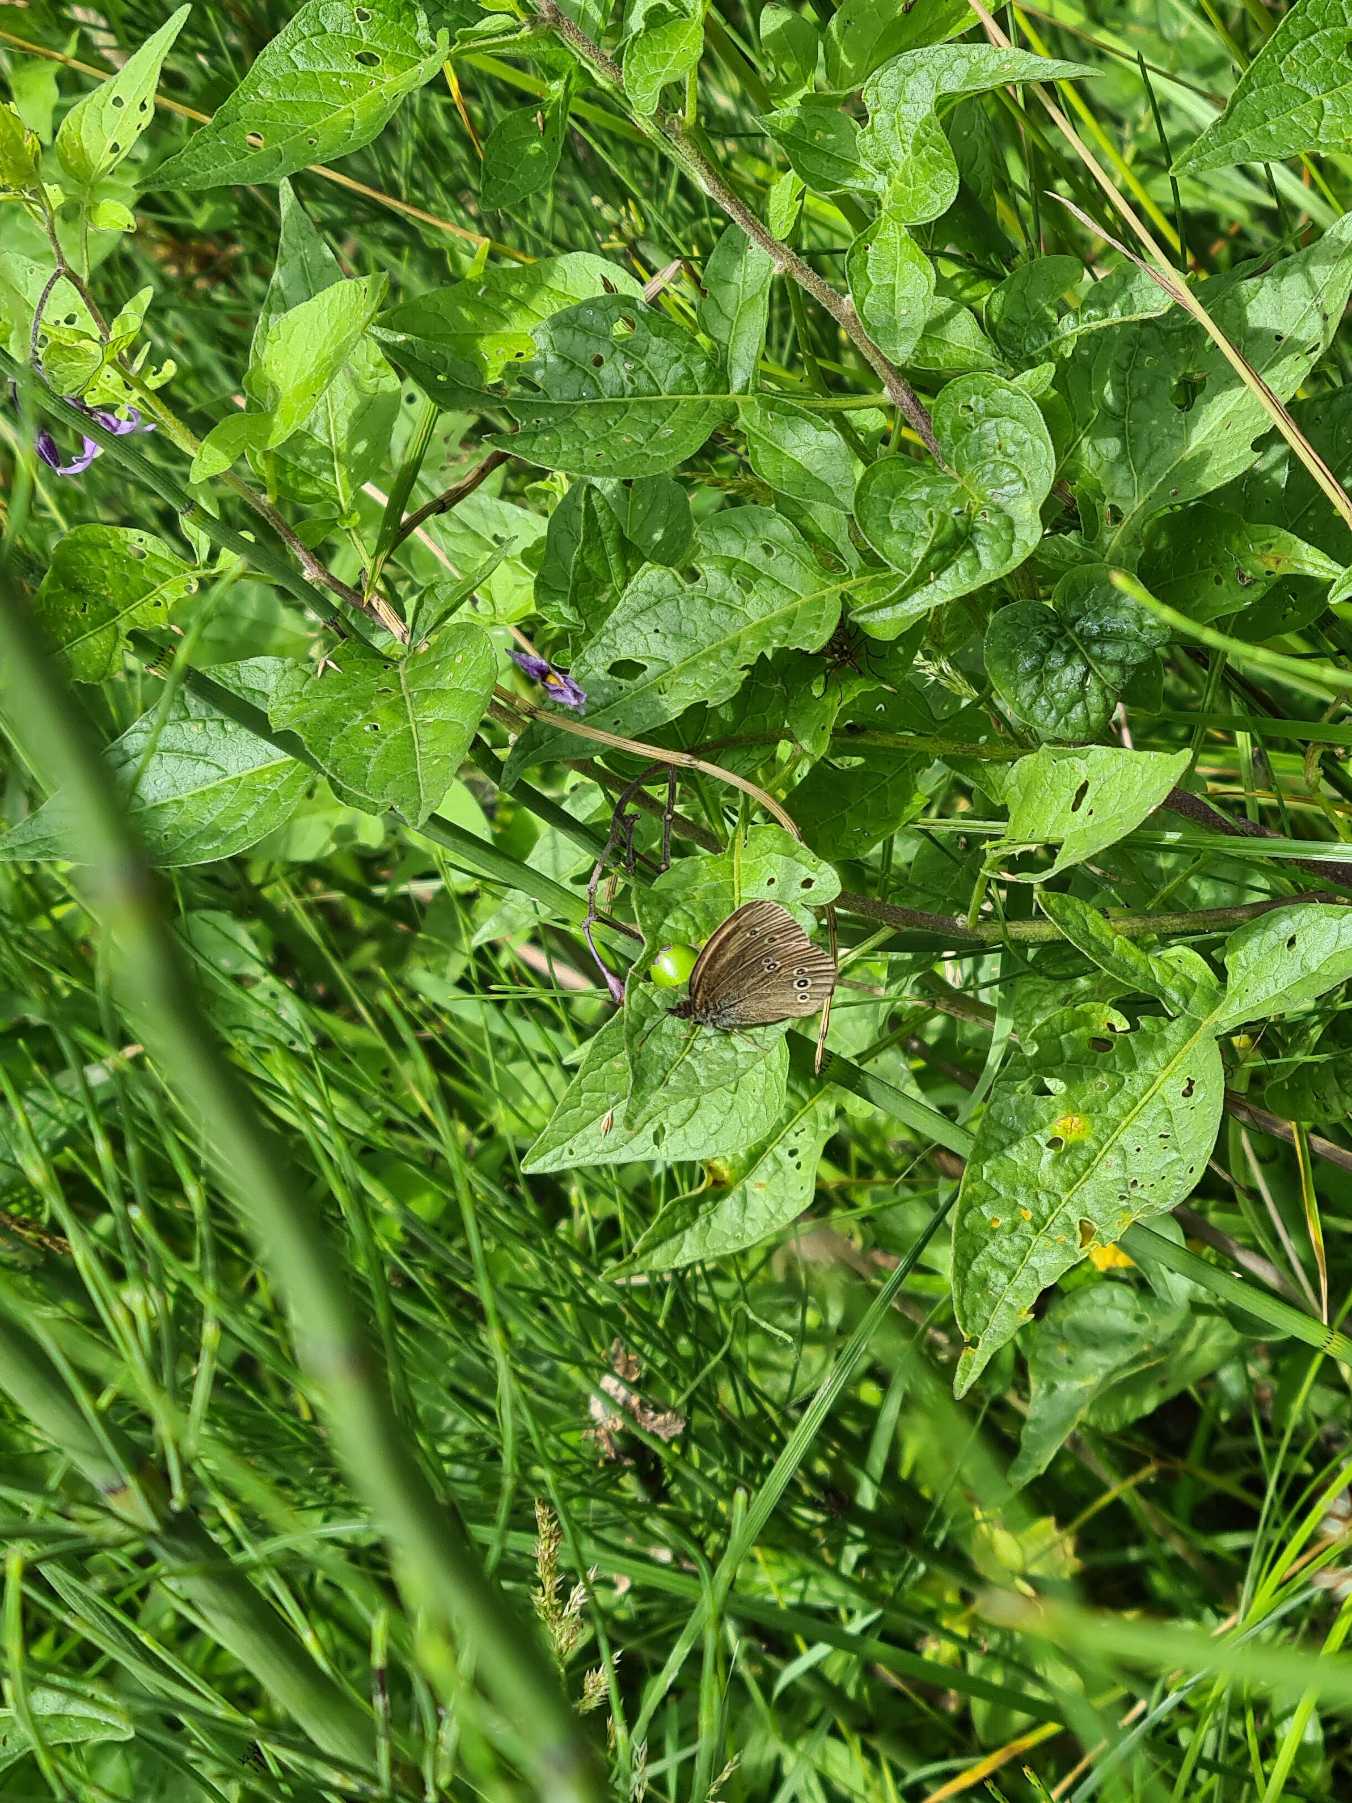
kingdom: Animalia
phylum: Arthropoda
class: Insecta
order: Lepidoptera
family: Nymphalidae
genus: Aphantopus
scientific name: Aphantopus hyperantus
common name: Engrandøje
